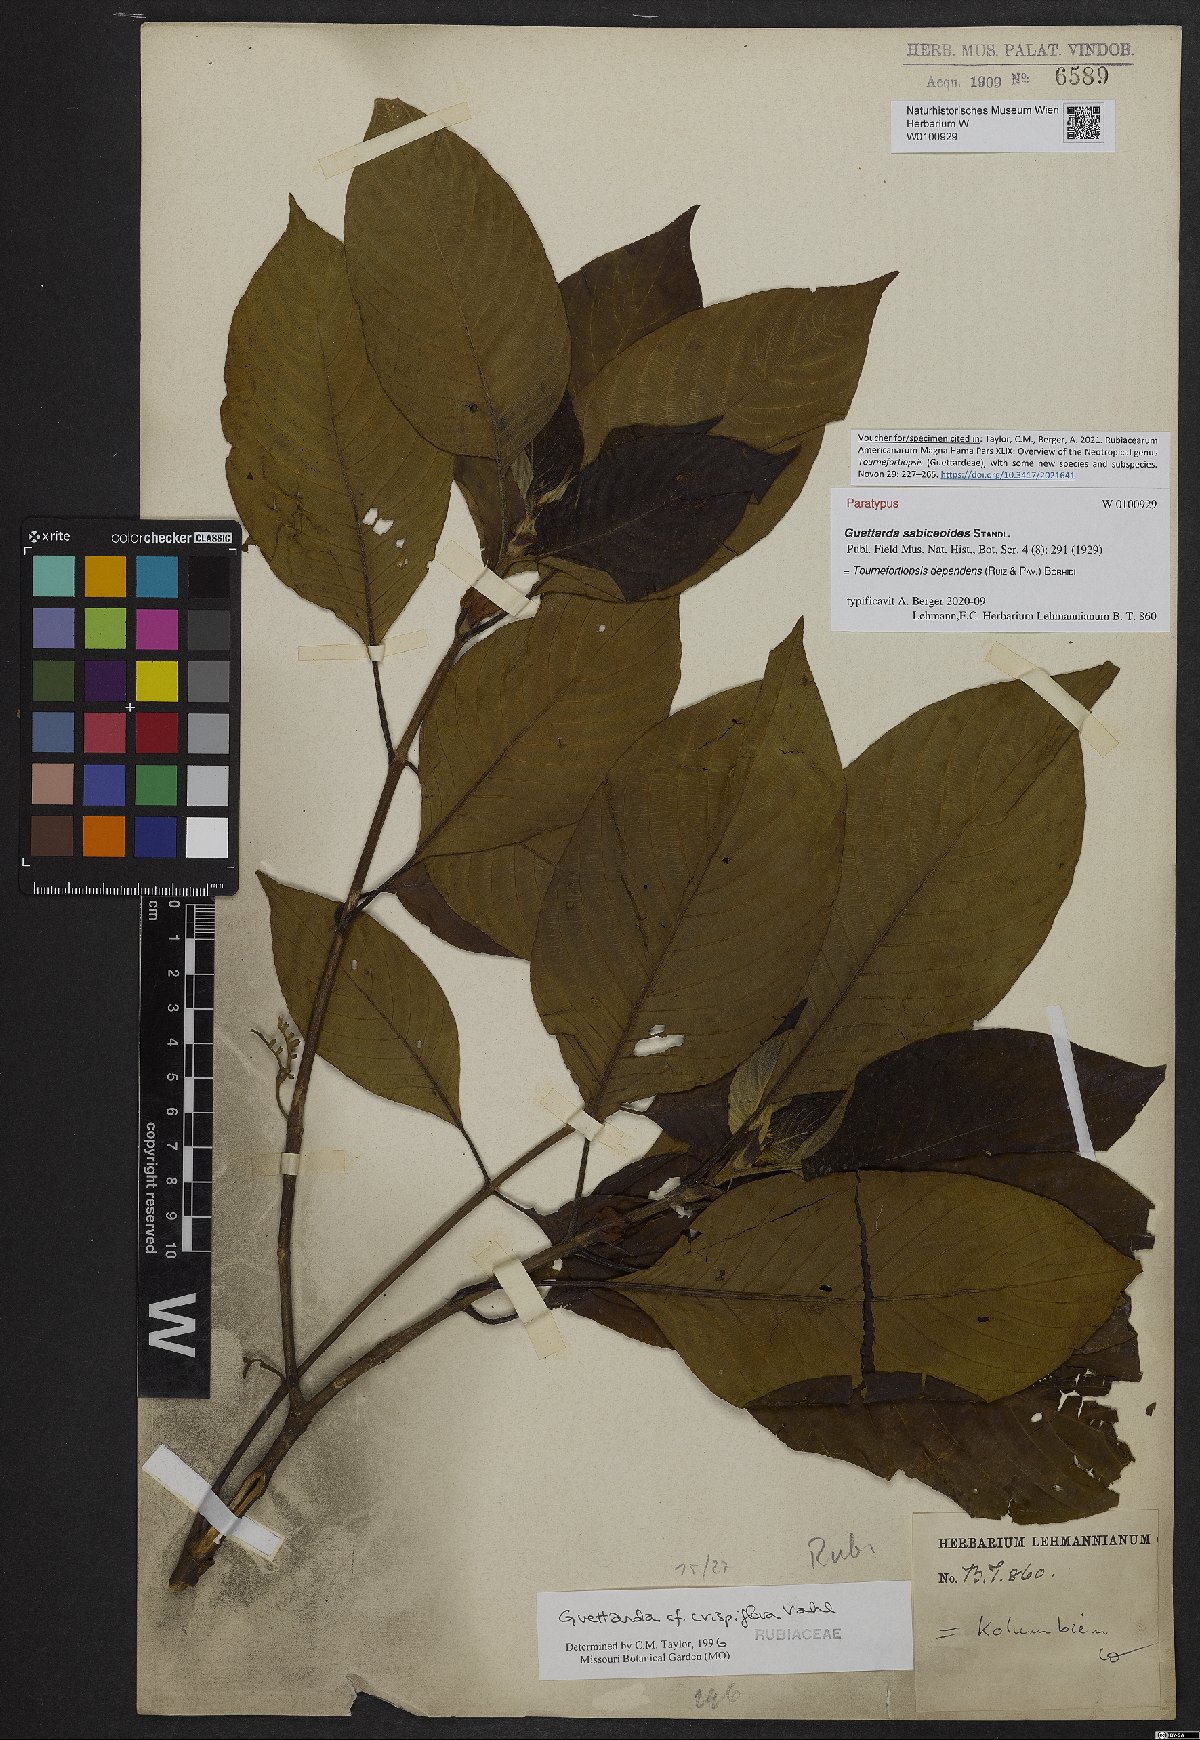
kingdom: Plantae
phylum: Tracheophyta
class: Magnoliopsida
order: Gentianales
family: Rubiaceae
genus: Tournefortiopsis
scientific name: Tournefortiopsis dependens
